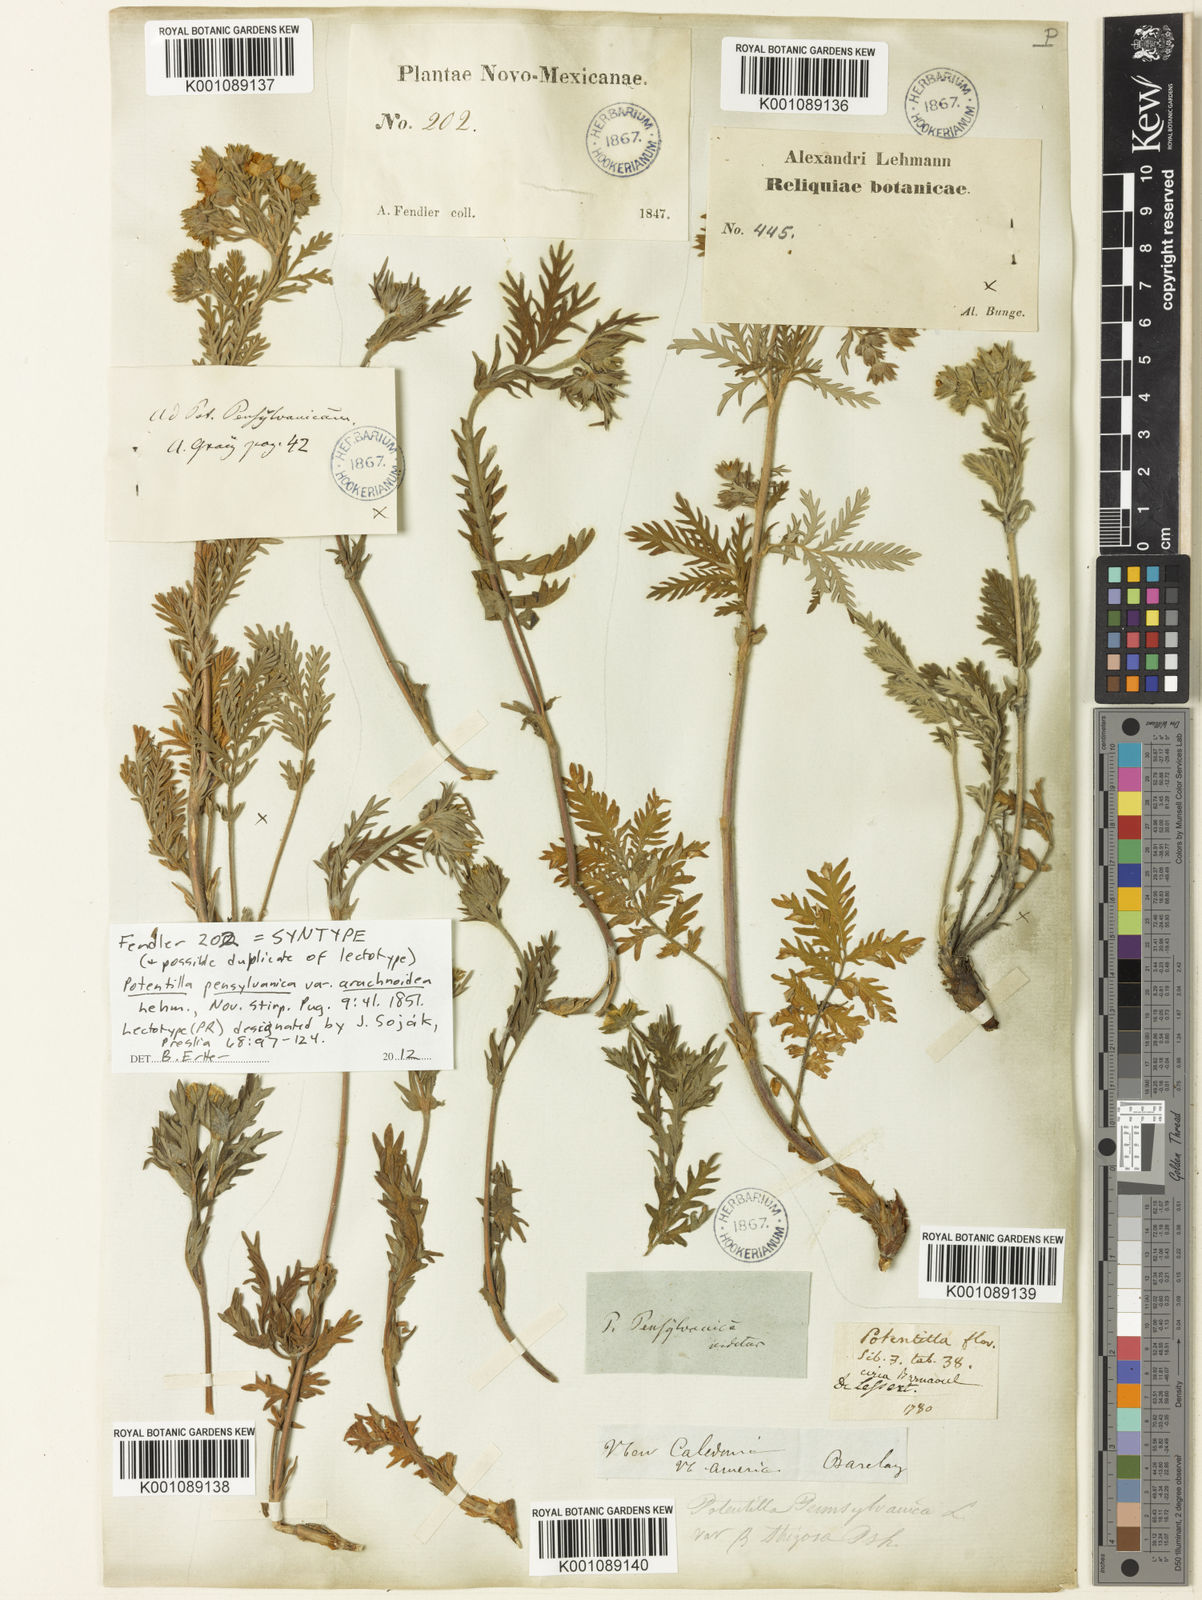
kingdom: Plantae
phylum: Tracheophyta
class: Magnoliopsida
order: Rosales
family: Rosaceae
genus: Potentilla
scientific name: Potentilla pensylvanica
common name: Pennsylvania cinquefoil
